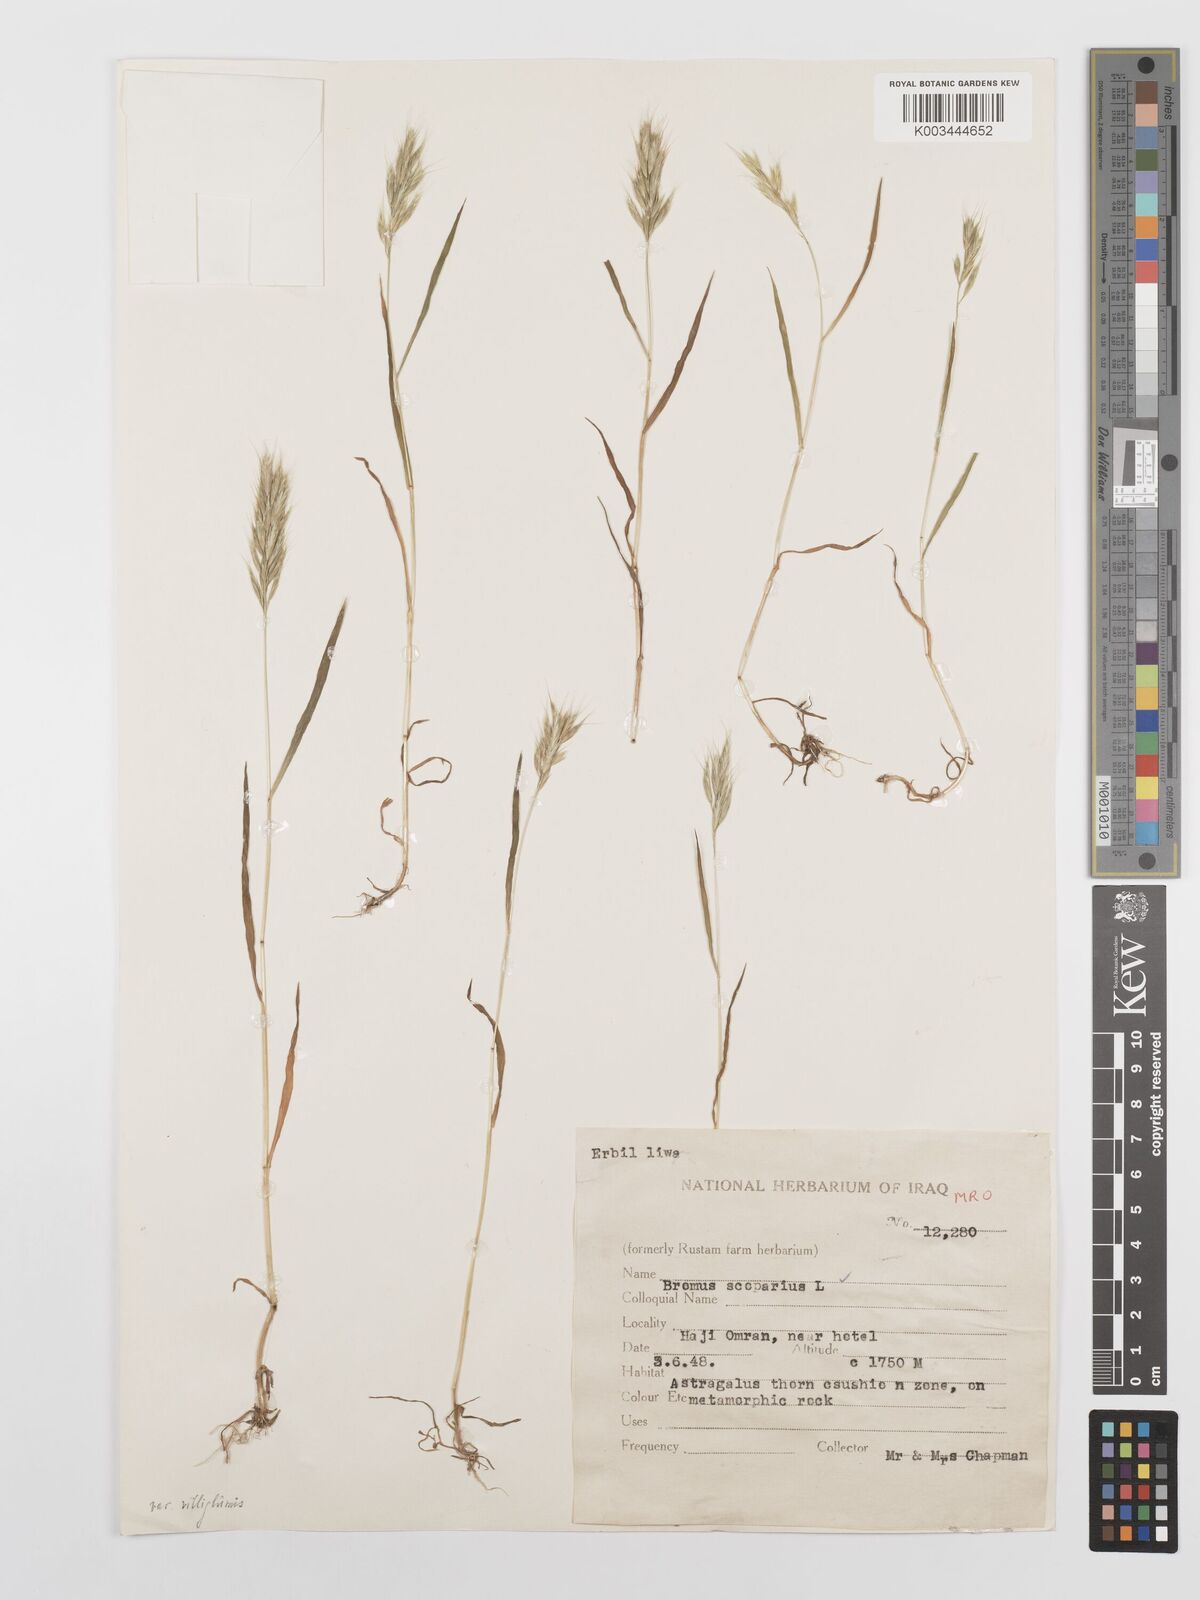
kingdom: Plantae
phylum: Tracheophyta
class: Liliopsida
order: Poales
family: Poaceae
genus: Bromus
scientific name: Bromus scoparius
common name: Broom brome
